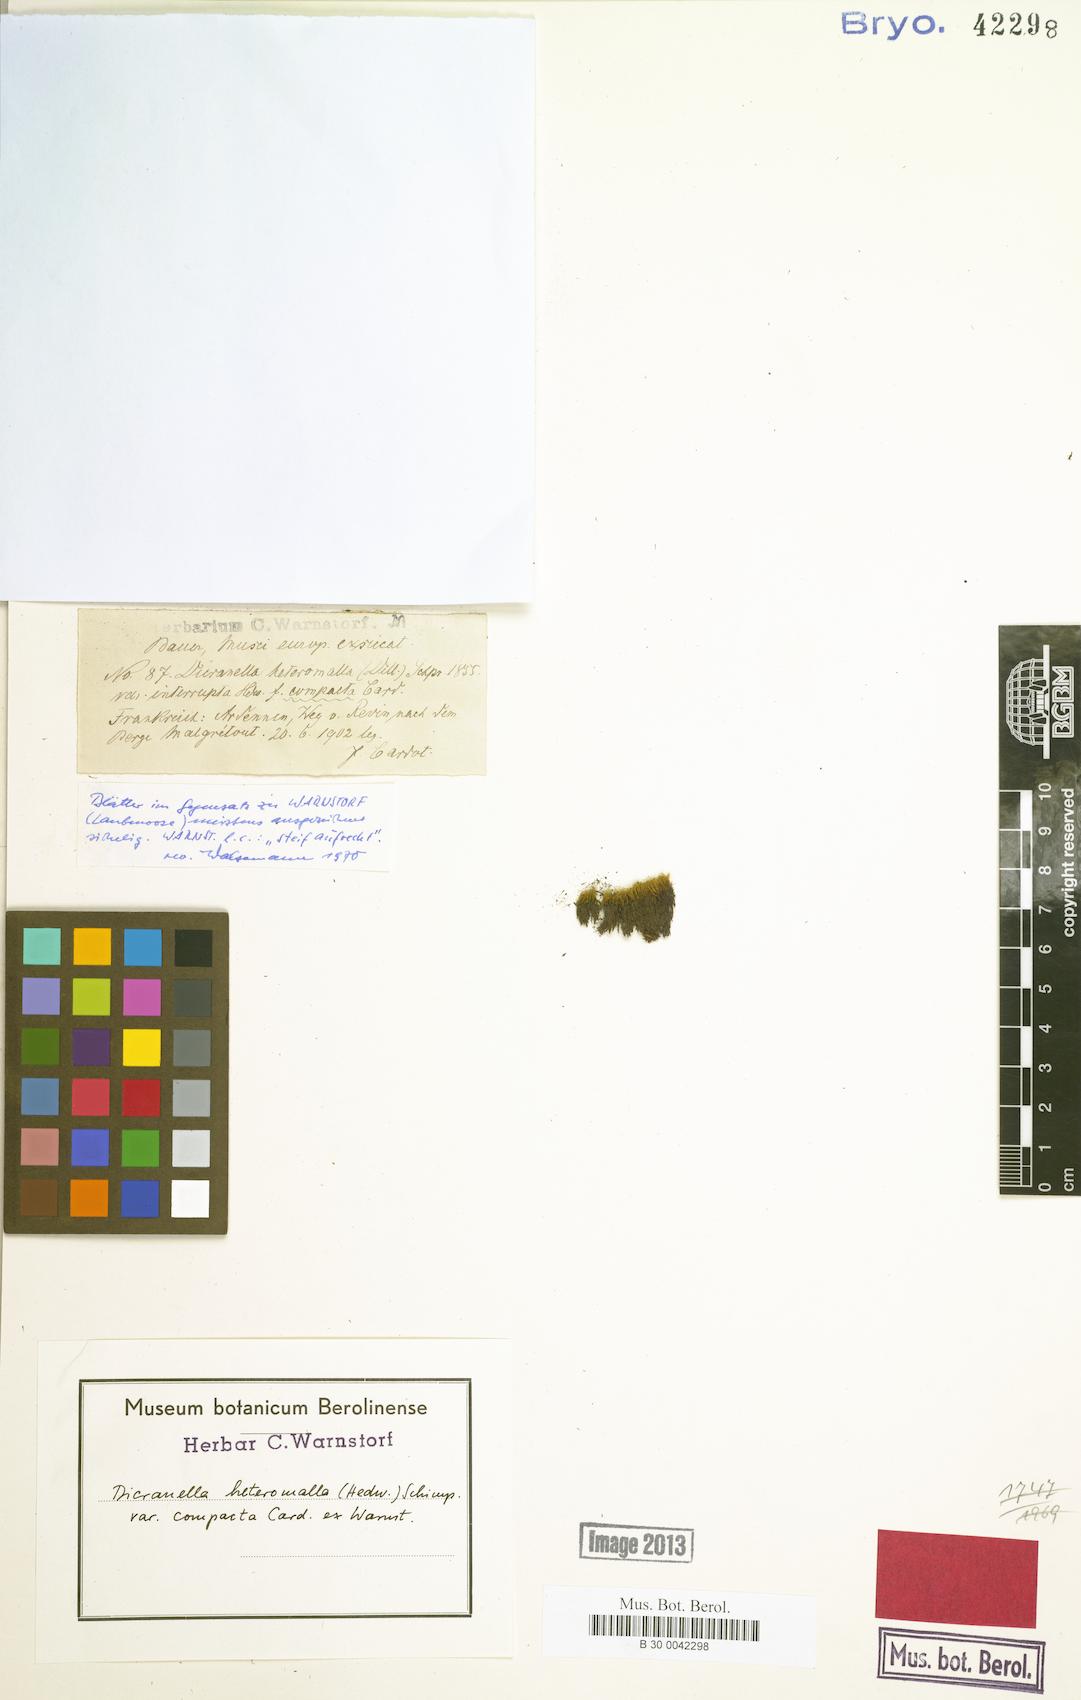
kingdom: Plantae
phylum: Bryophyta
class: Bryopsida
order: Dicranales
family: Dicranellaceae
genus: Dicranella
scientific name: Dicranella heteromalla
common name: Silky forklet moss
